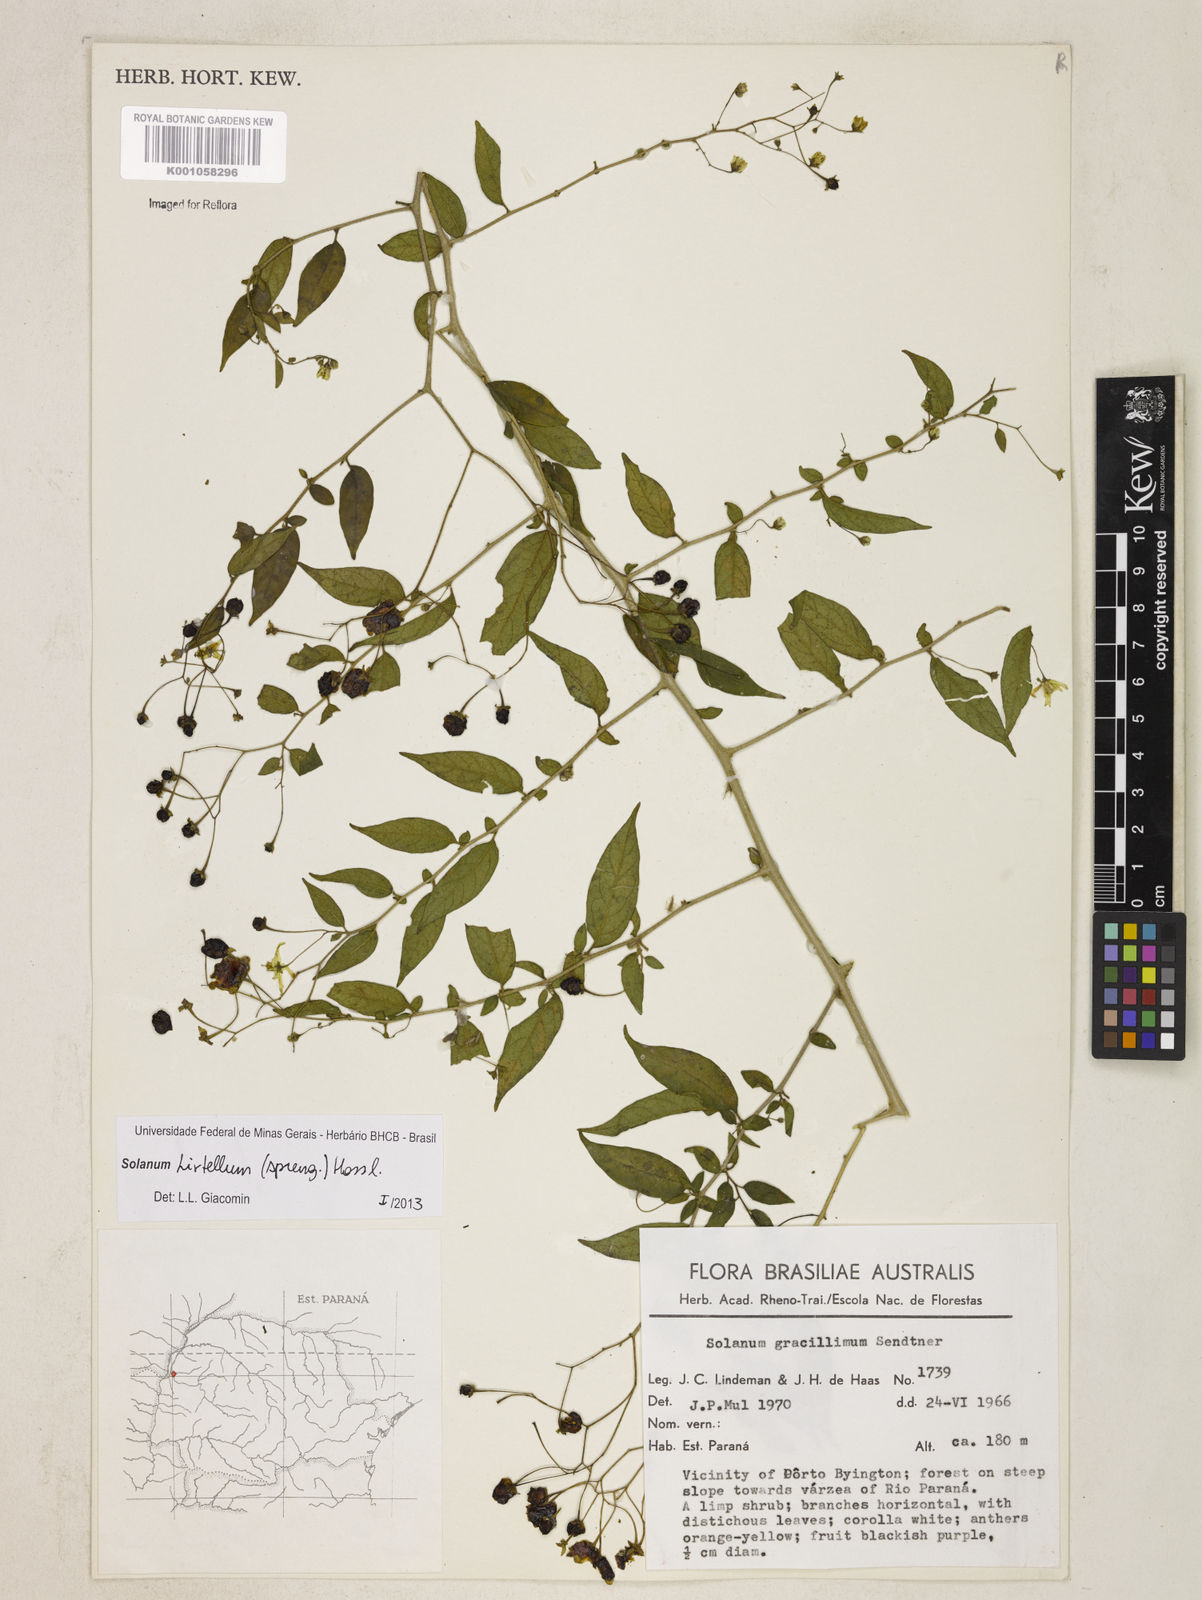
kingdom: Plantae
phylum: Tracheophyta
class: Magnoliopsida
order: Solanales
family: Solanaceae
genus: Solanum
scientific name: Solanum hirtellum
